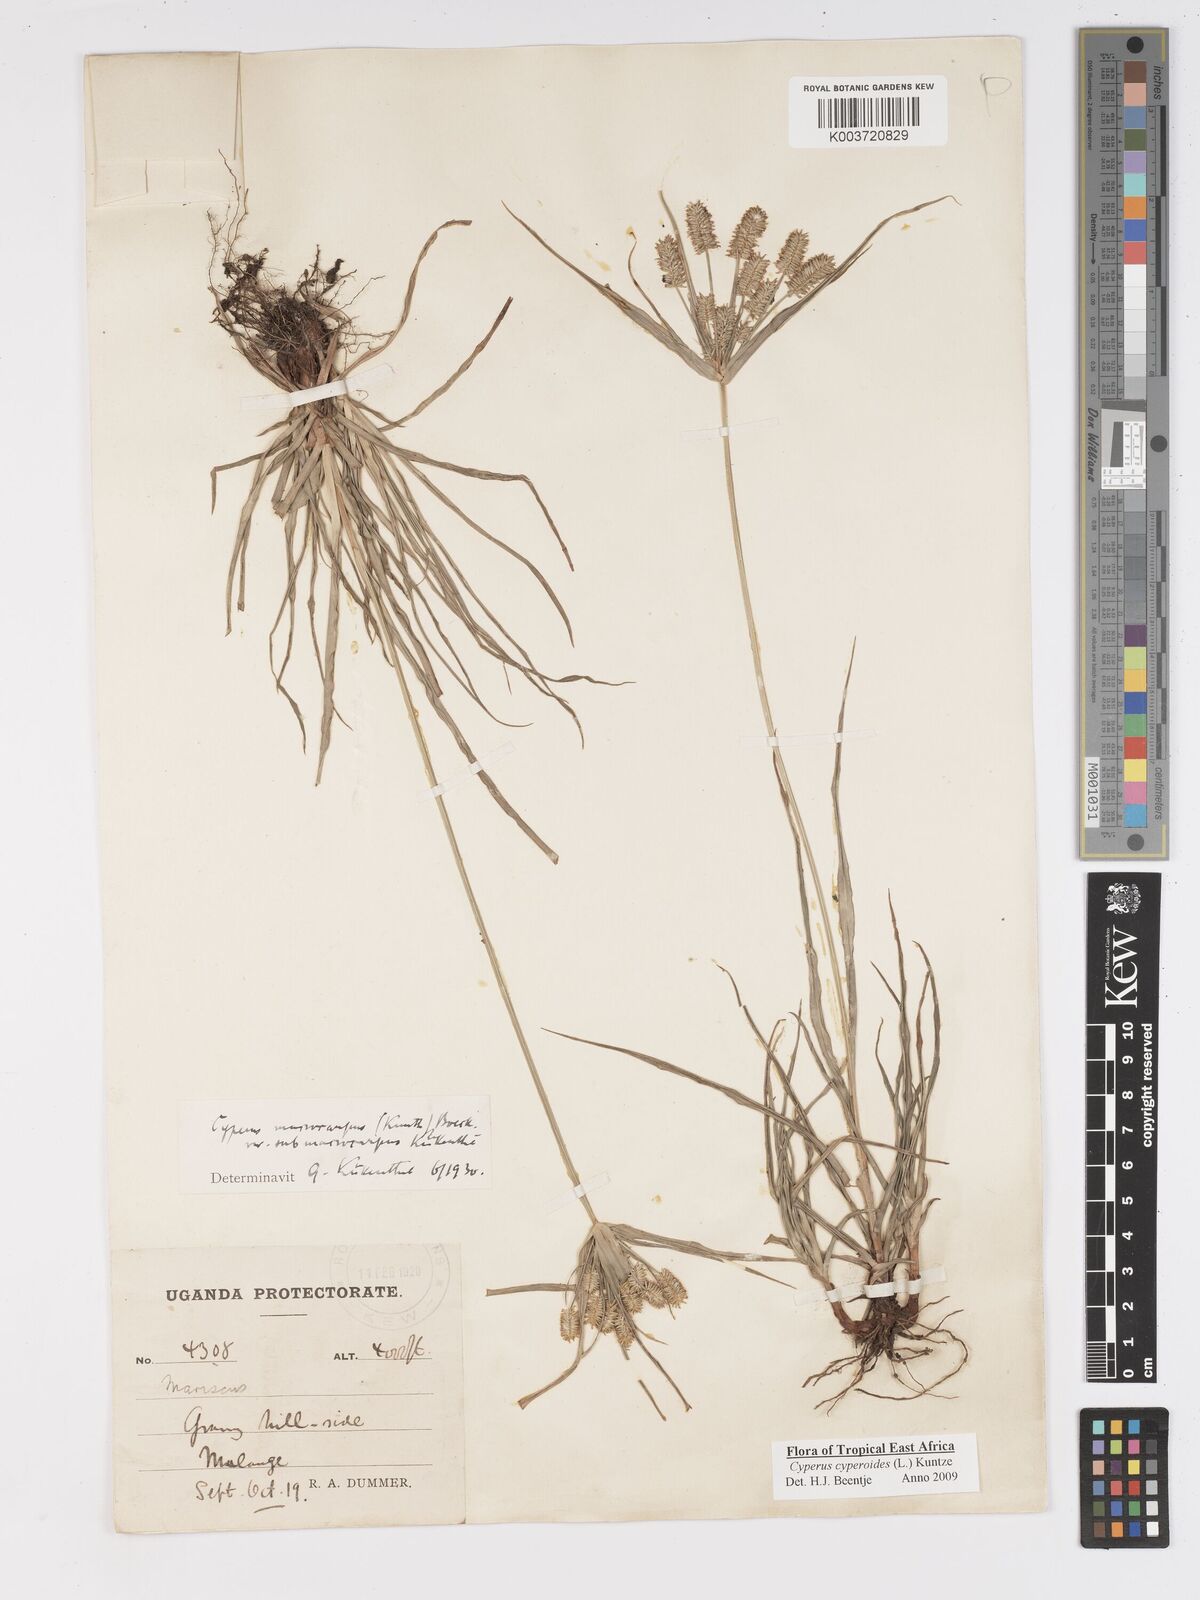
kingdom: Plantae
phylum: Tracheophyta
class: Liliopsida
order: Poales
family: Cyperaceae
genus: Cyperus
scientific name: Cyperus macrocarpus
